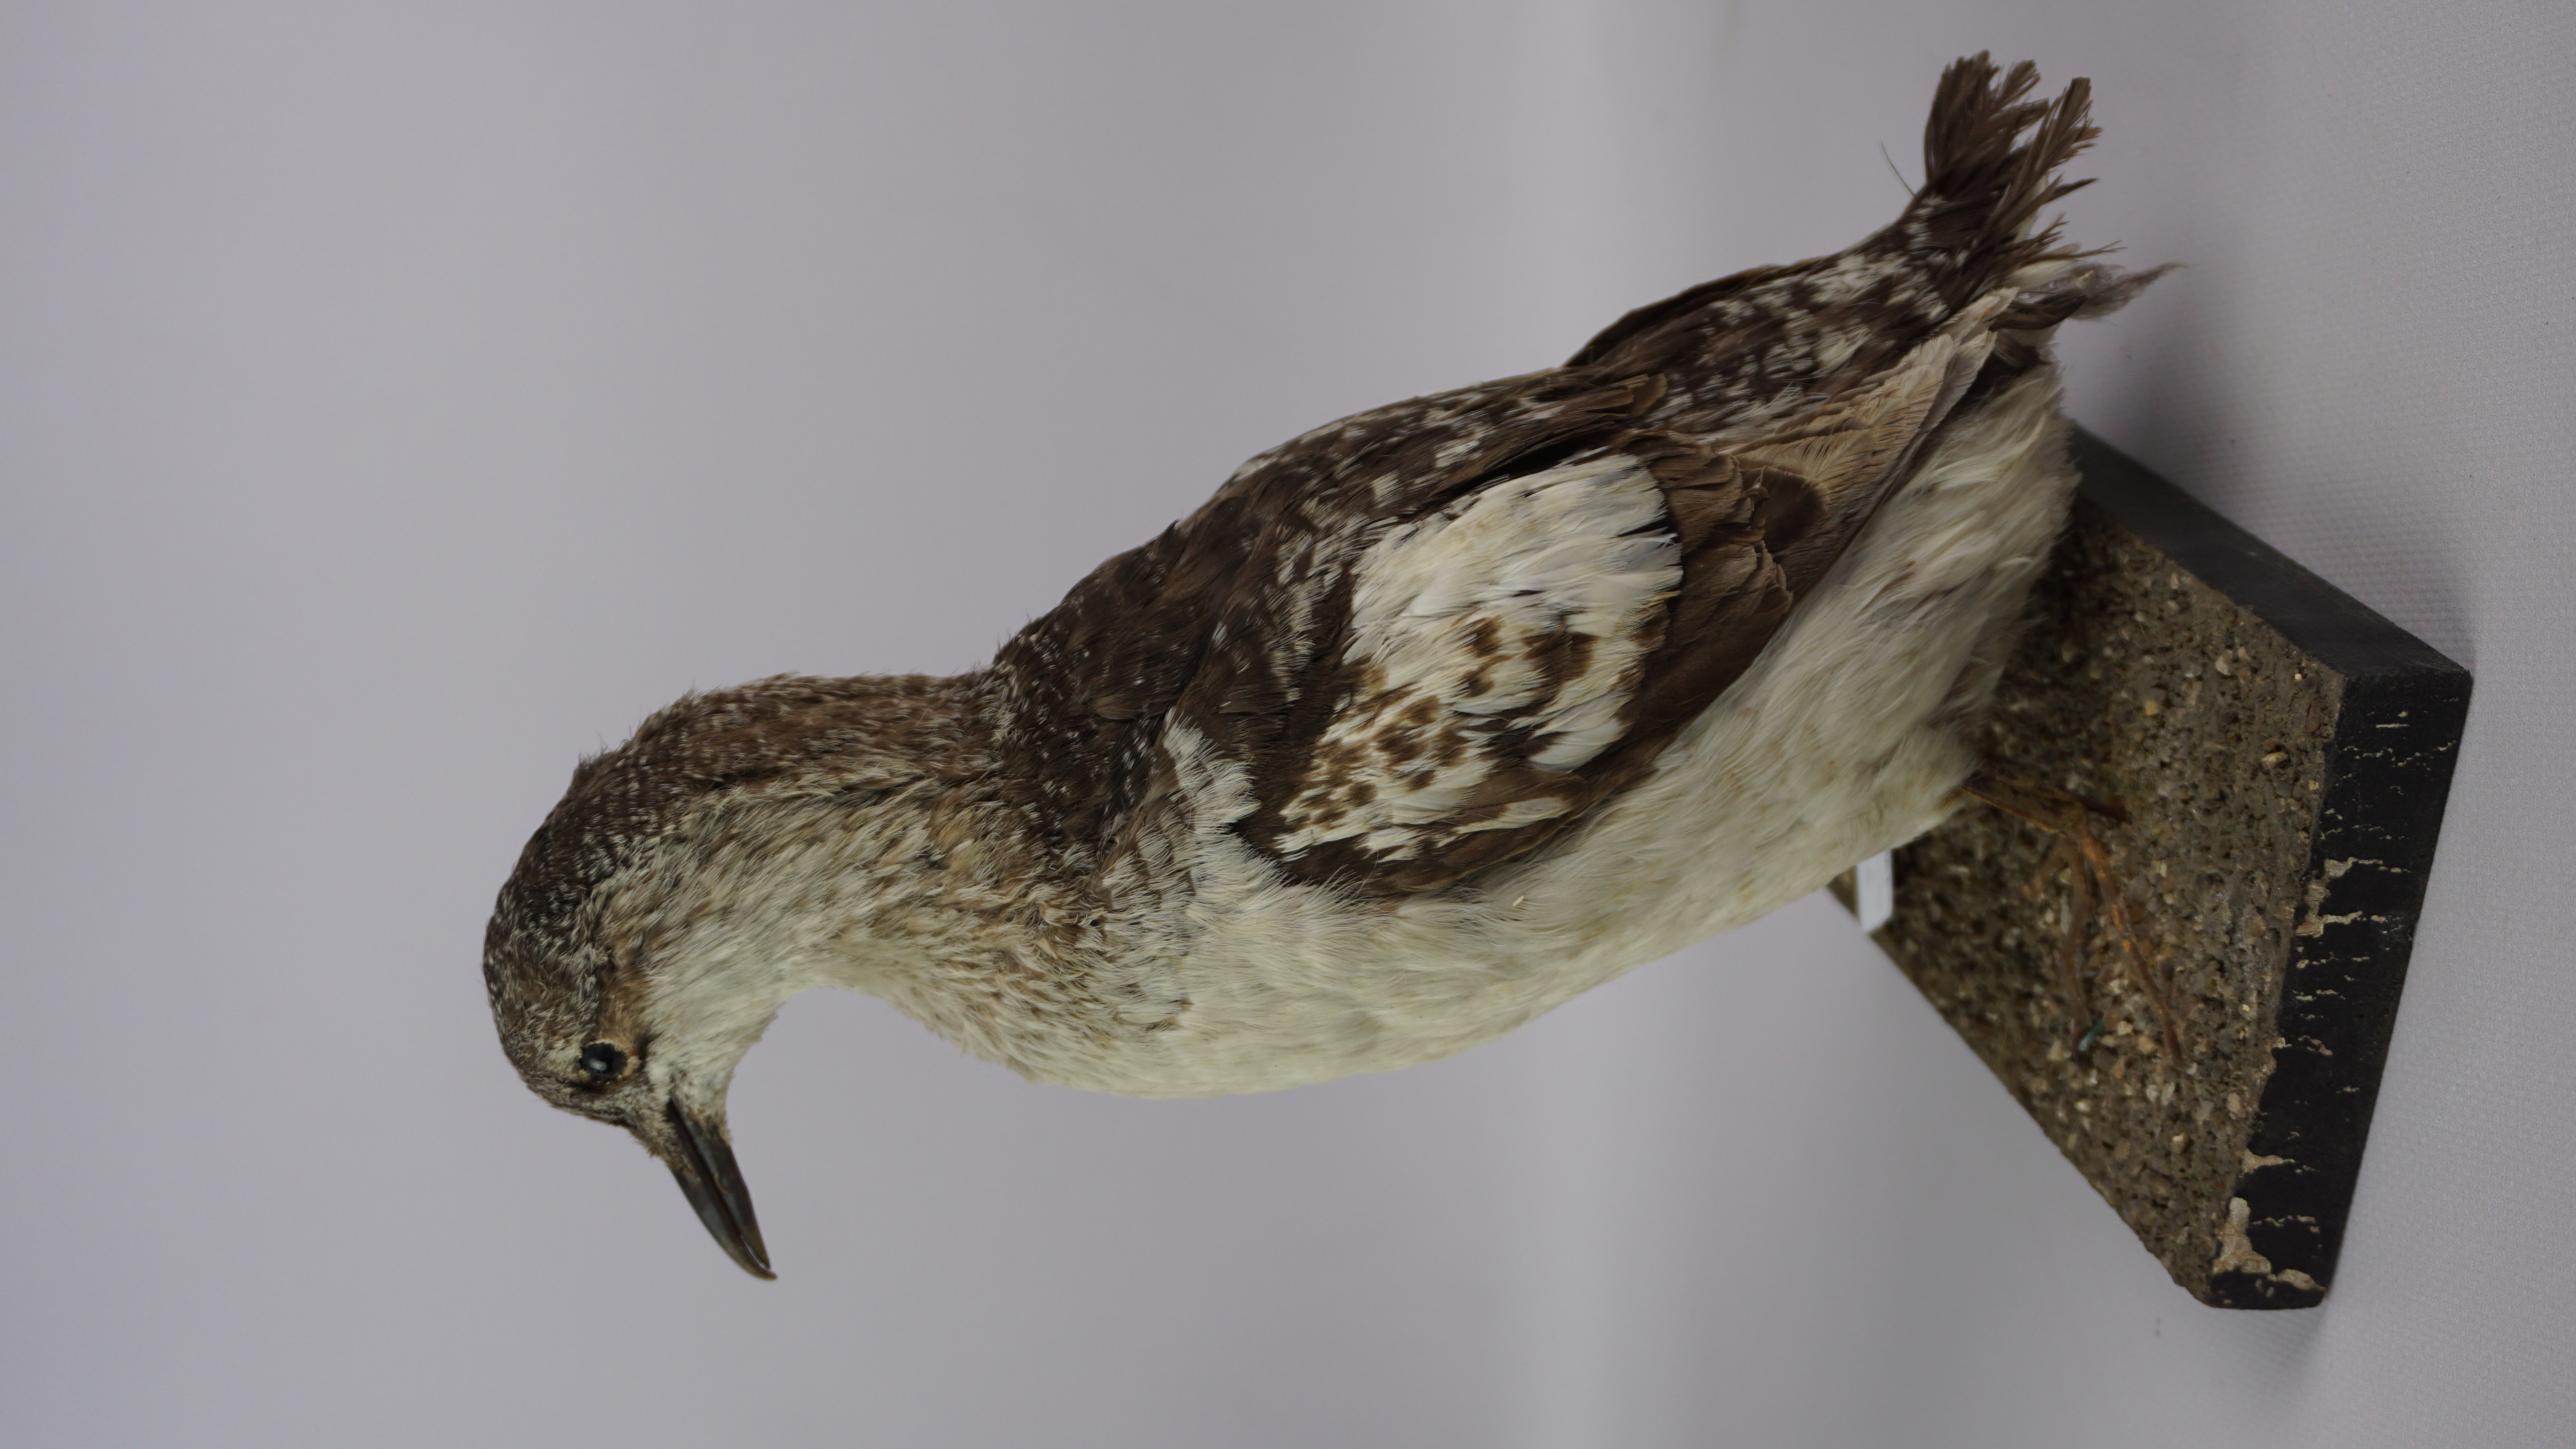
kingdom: Animalia
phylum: Chordata
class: Aves
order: Charadriiformes
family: Alcidae
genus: Cepphus
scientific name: Cepphus grylle
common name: Black guillemot
